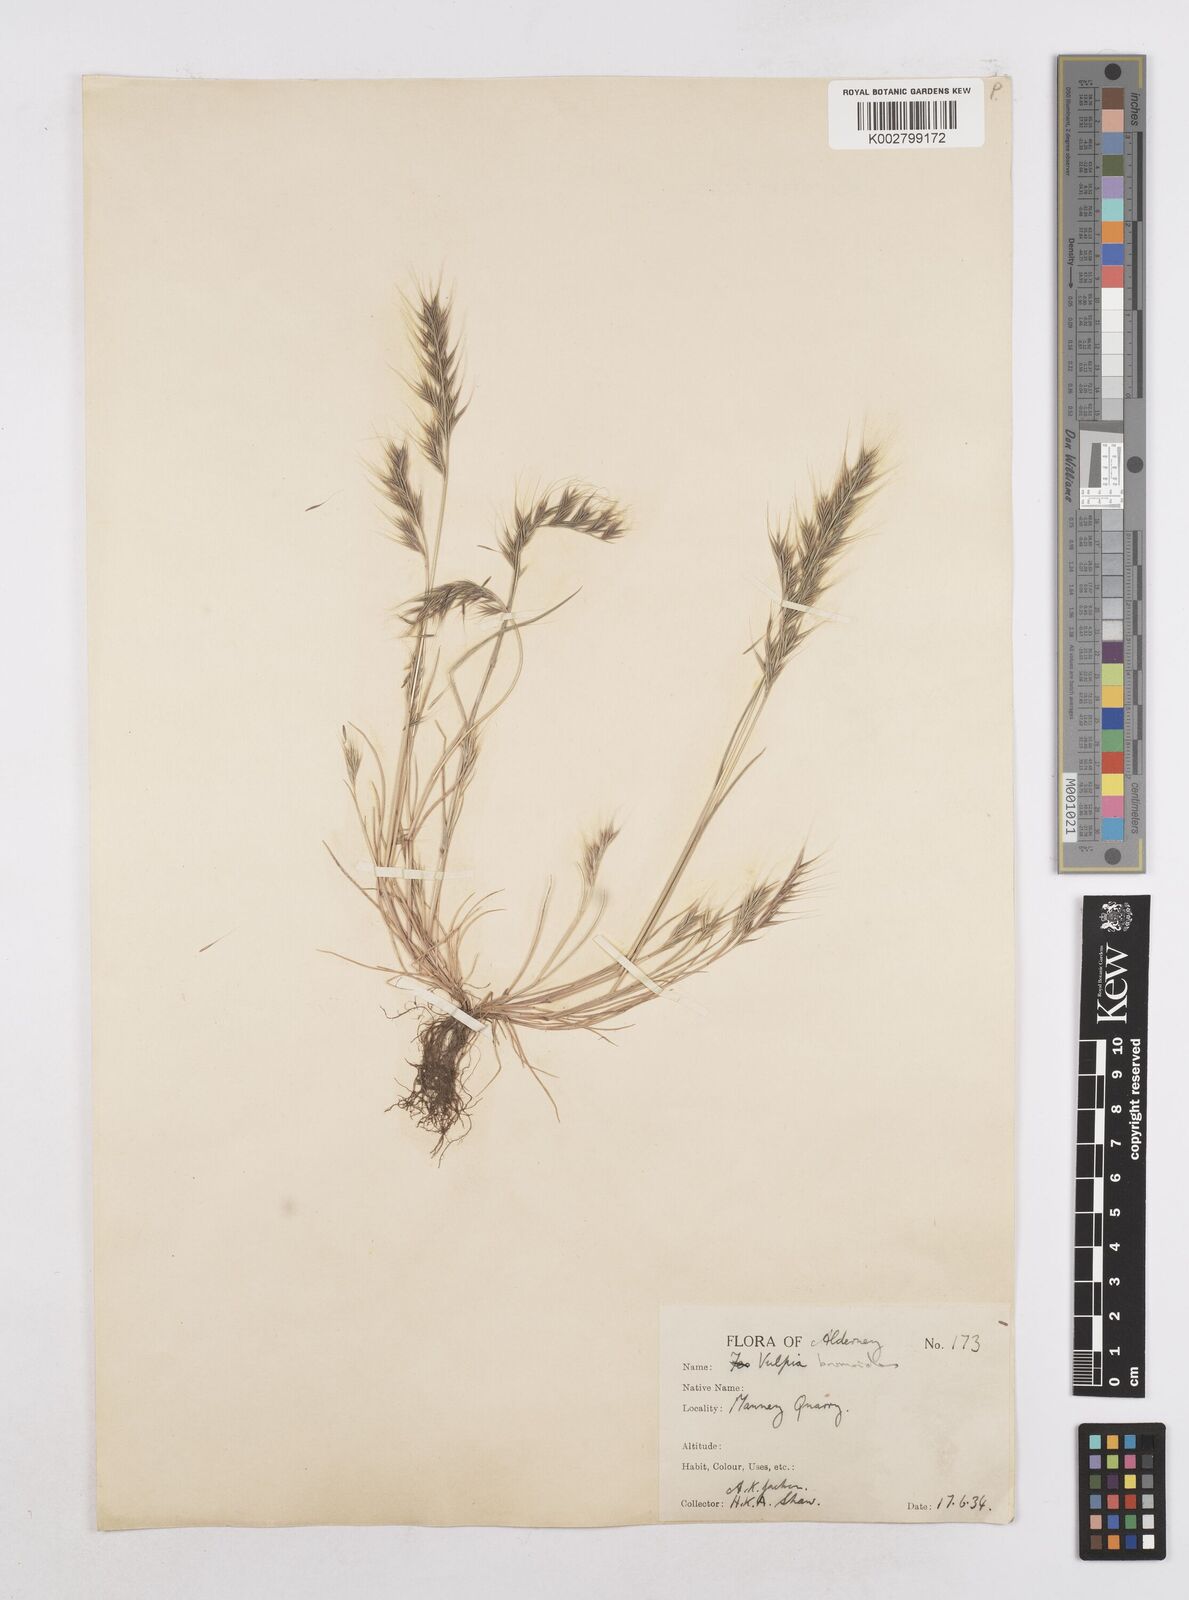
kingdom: Plantae
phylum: Tracheophyta
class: Liliopsida
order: Poales
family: Poaceae
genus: Festuca
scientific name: Festuca bromoides
